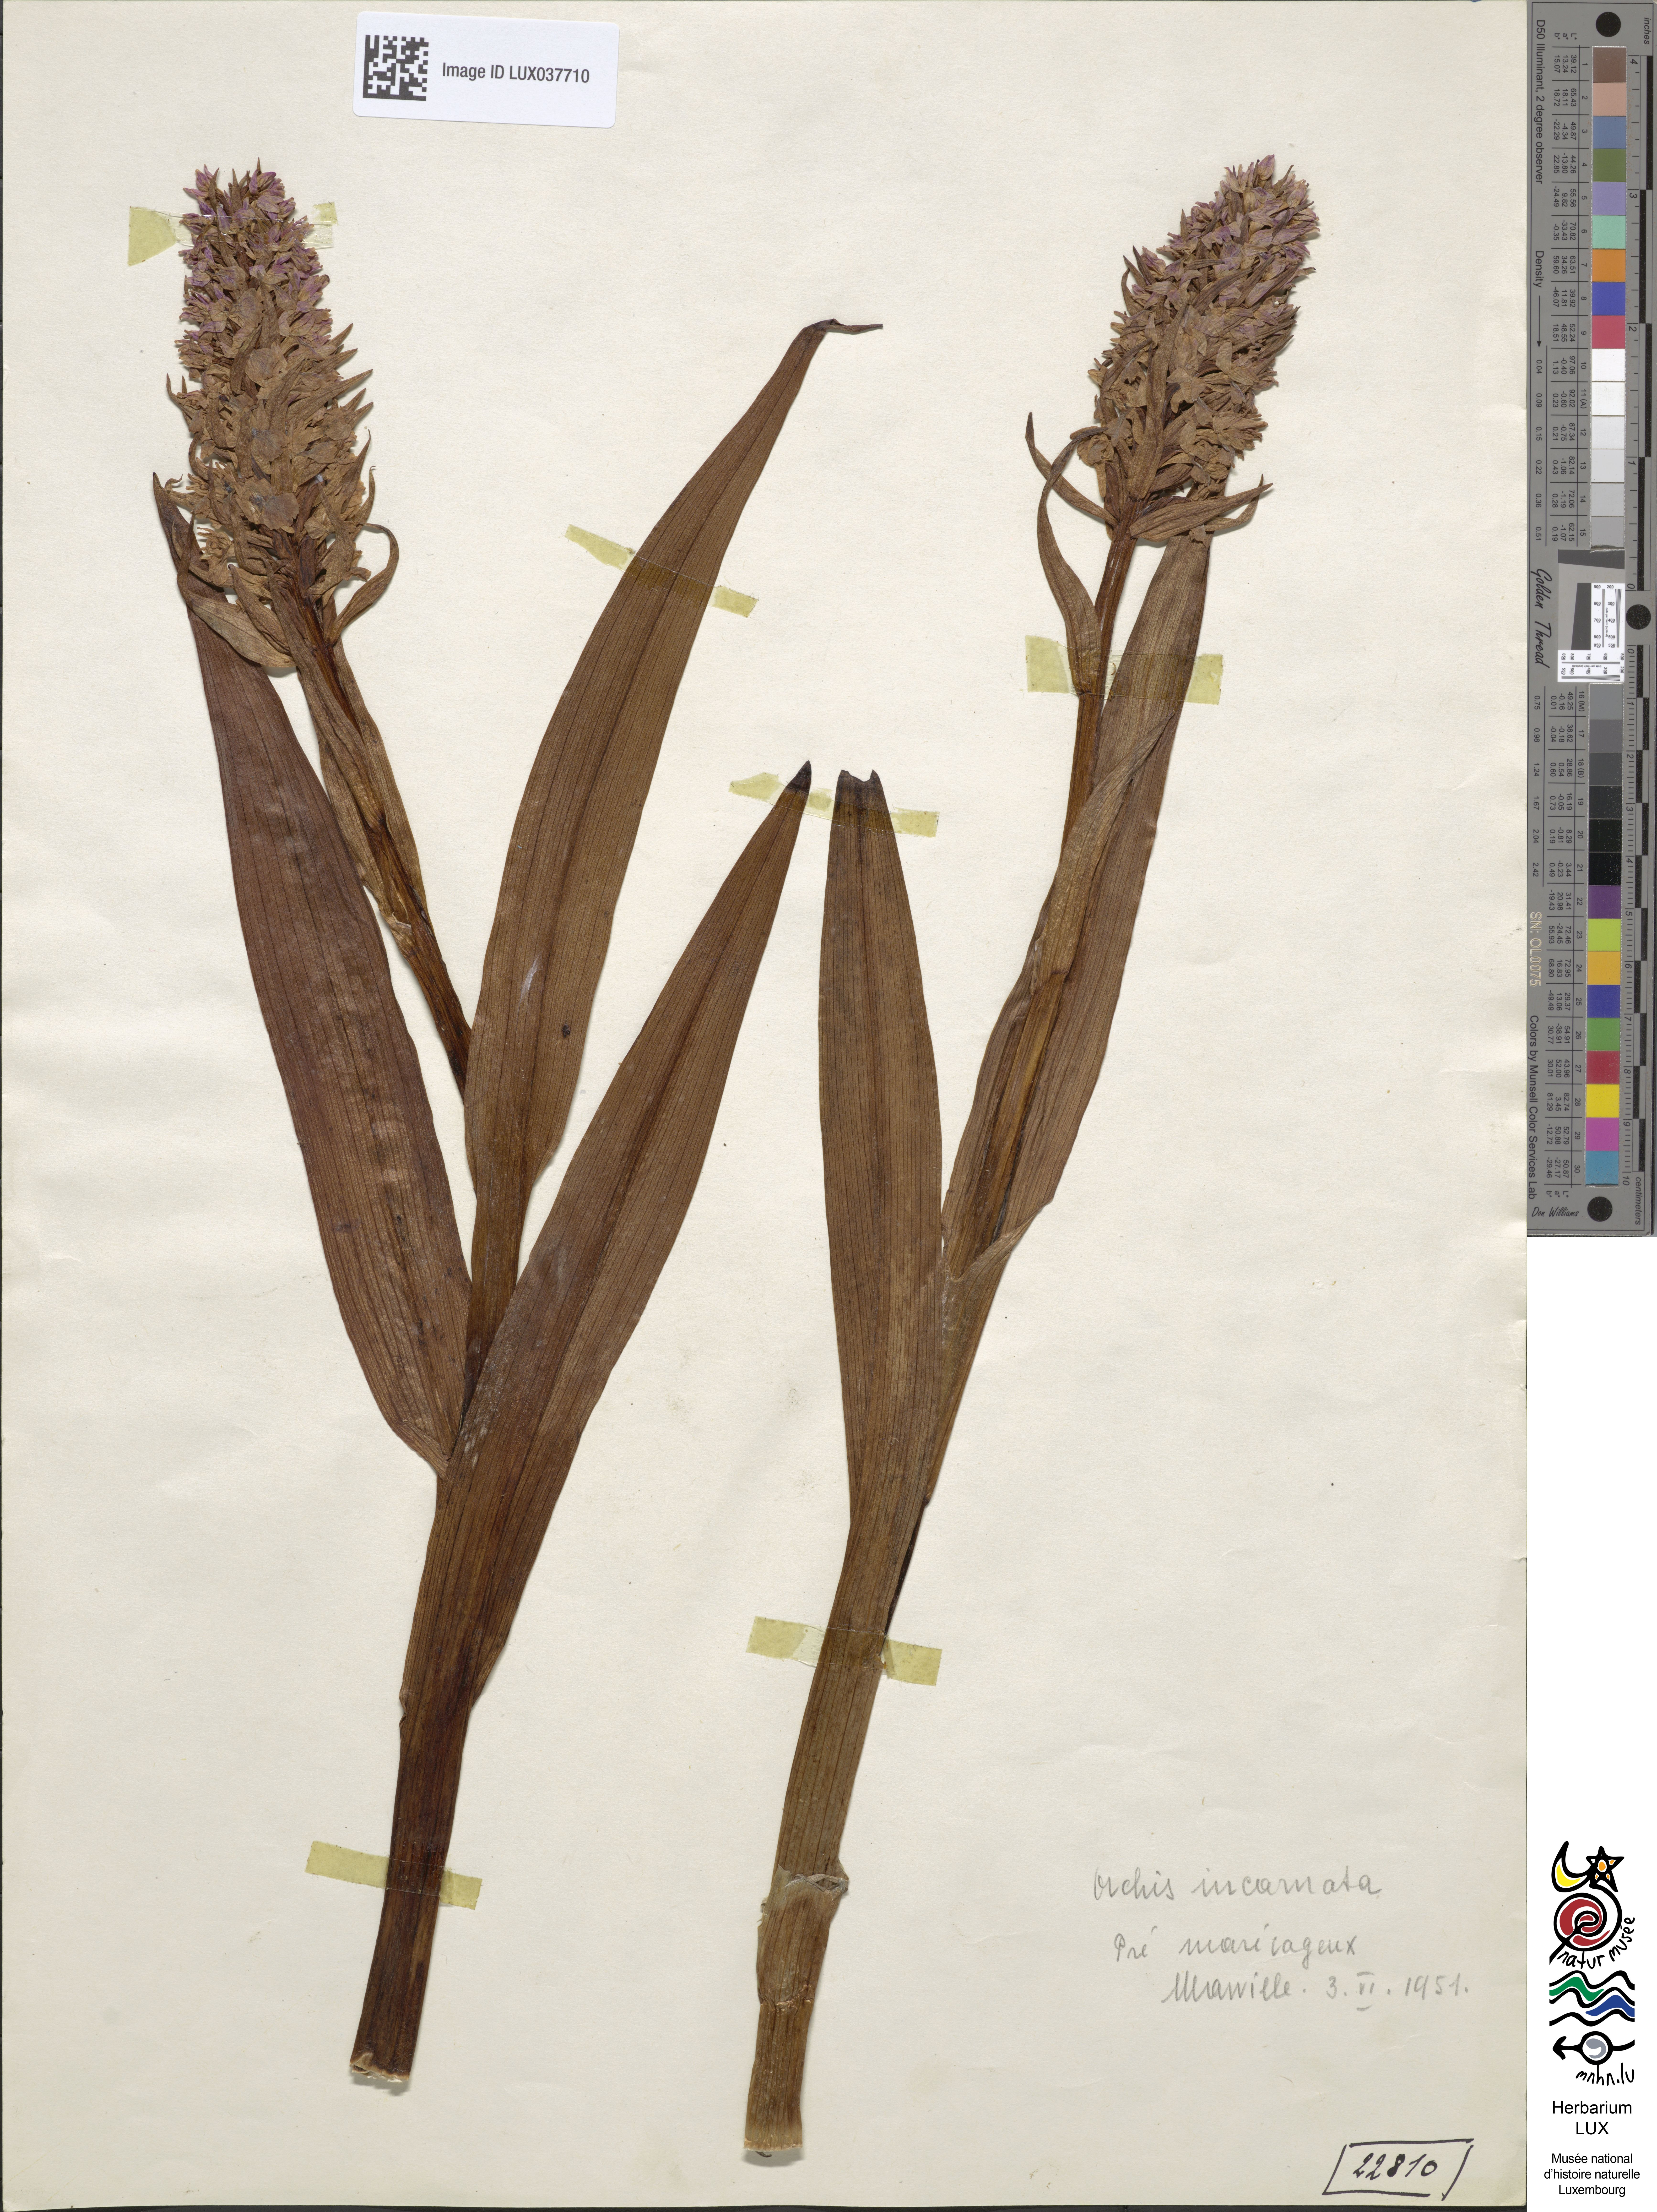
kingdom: Plantae
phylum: Tracheophyta
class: Liliopsida
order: Asparagales
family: Orchidaceae
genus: Dactylorhiza
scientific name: Dactylorhiza incarnata
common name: Early marsh-orchid
